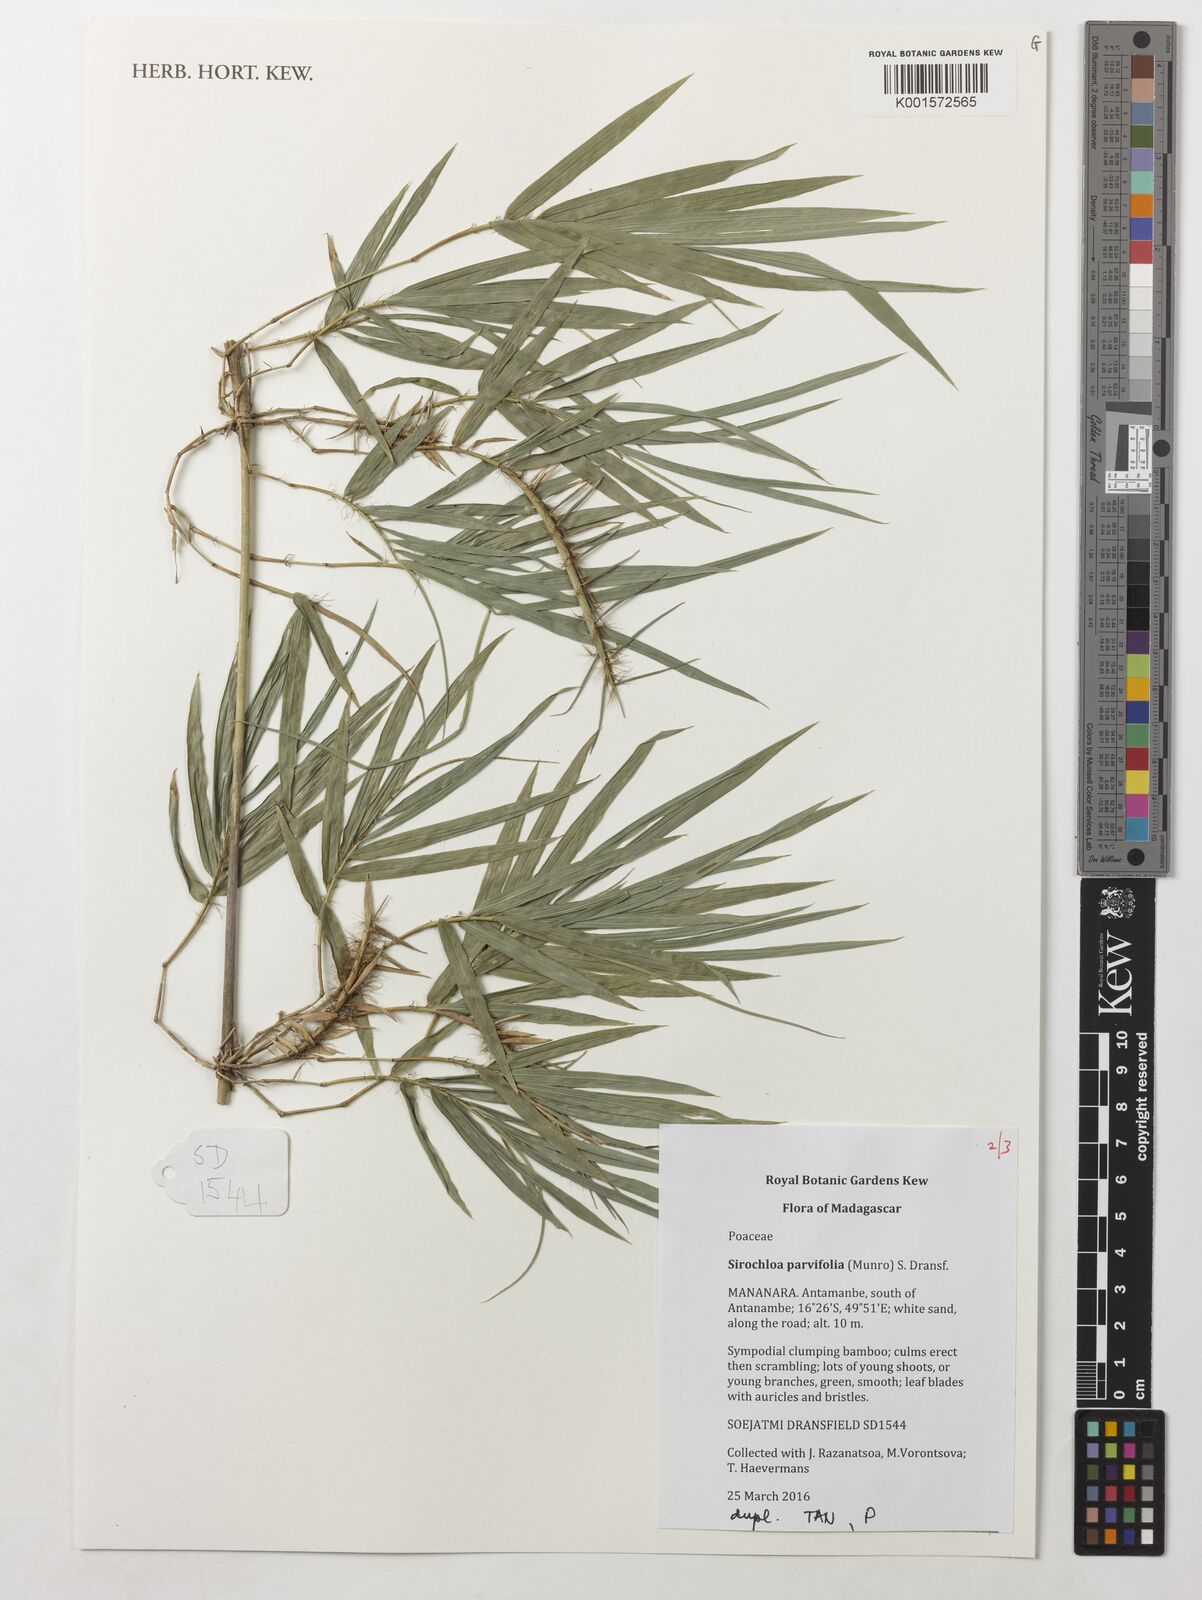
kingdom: Plantae
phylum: Tracheophyta
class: Liliopsida
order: Poales
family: Poaceae
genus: Sirochloa
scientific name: Sirochloa parvifolia
